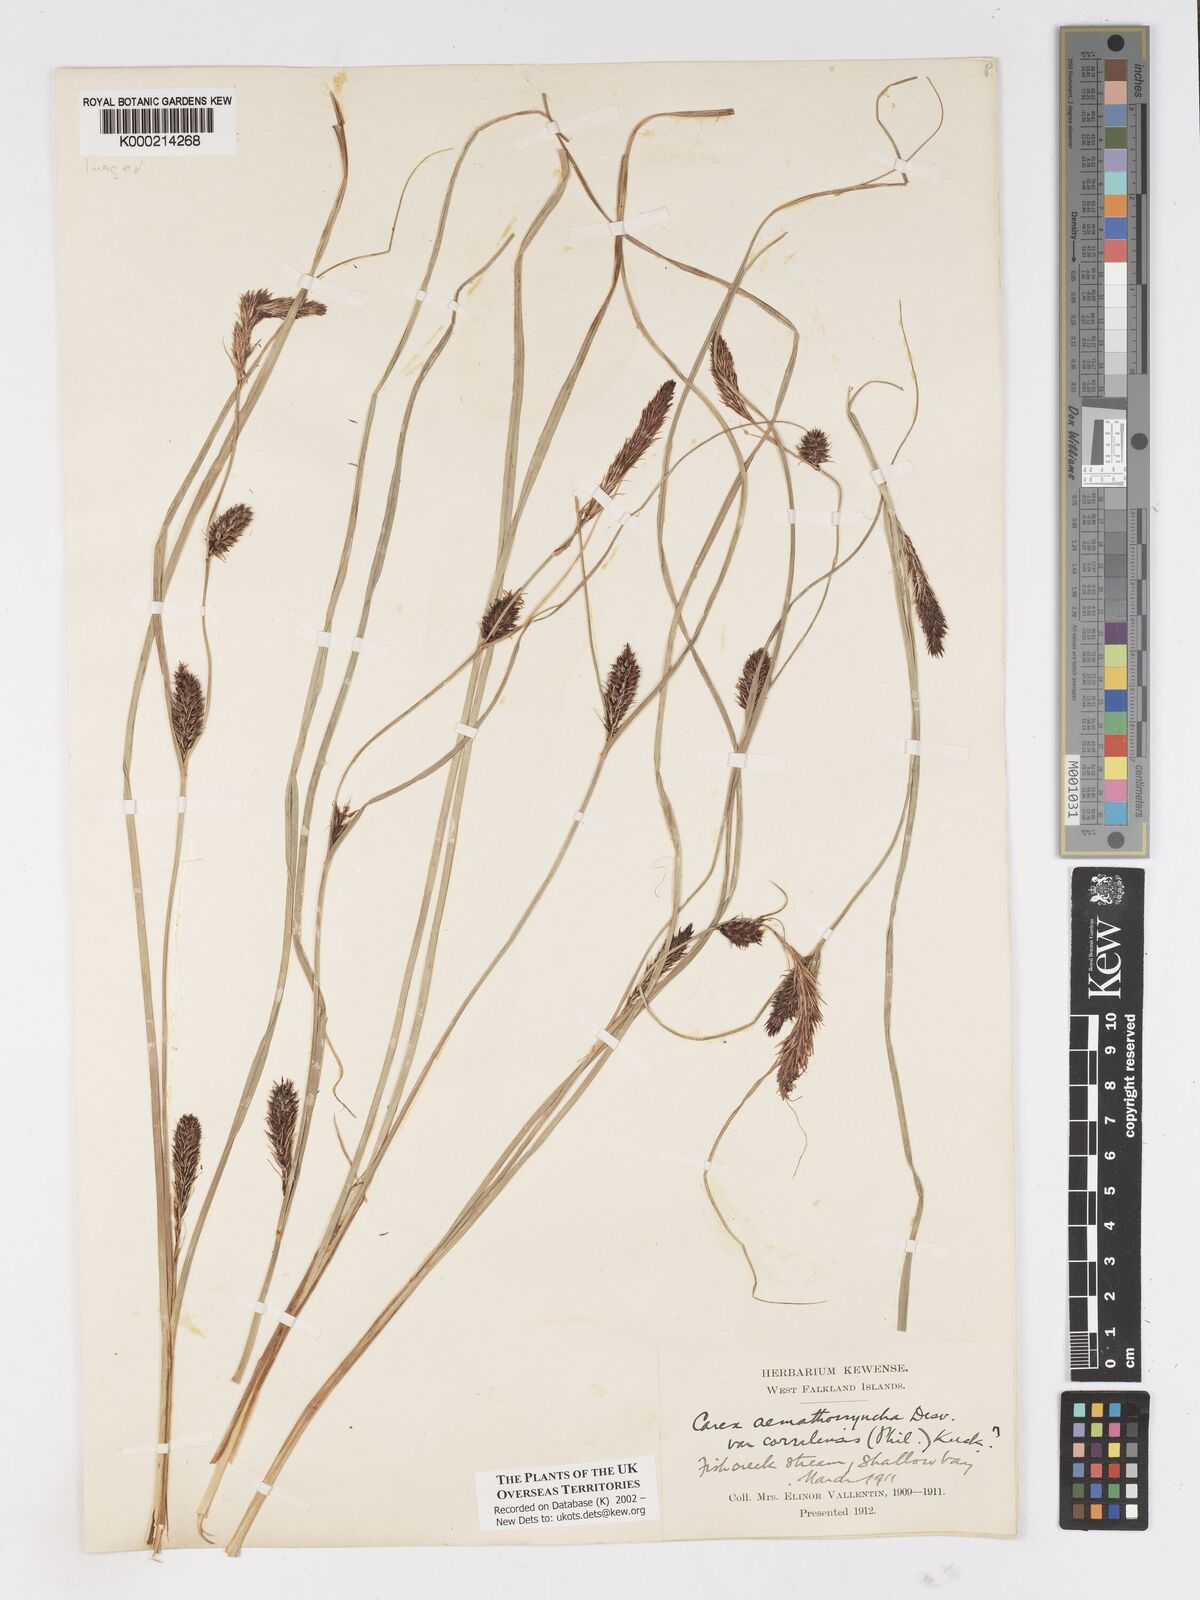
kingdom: Plantae
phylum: Tracheophyta
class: Liliopsida
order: Poales
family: Cyperaceae
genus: Carex
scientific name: Carex aematorhyncha
